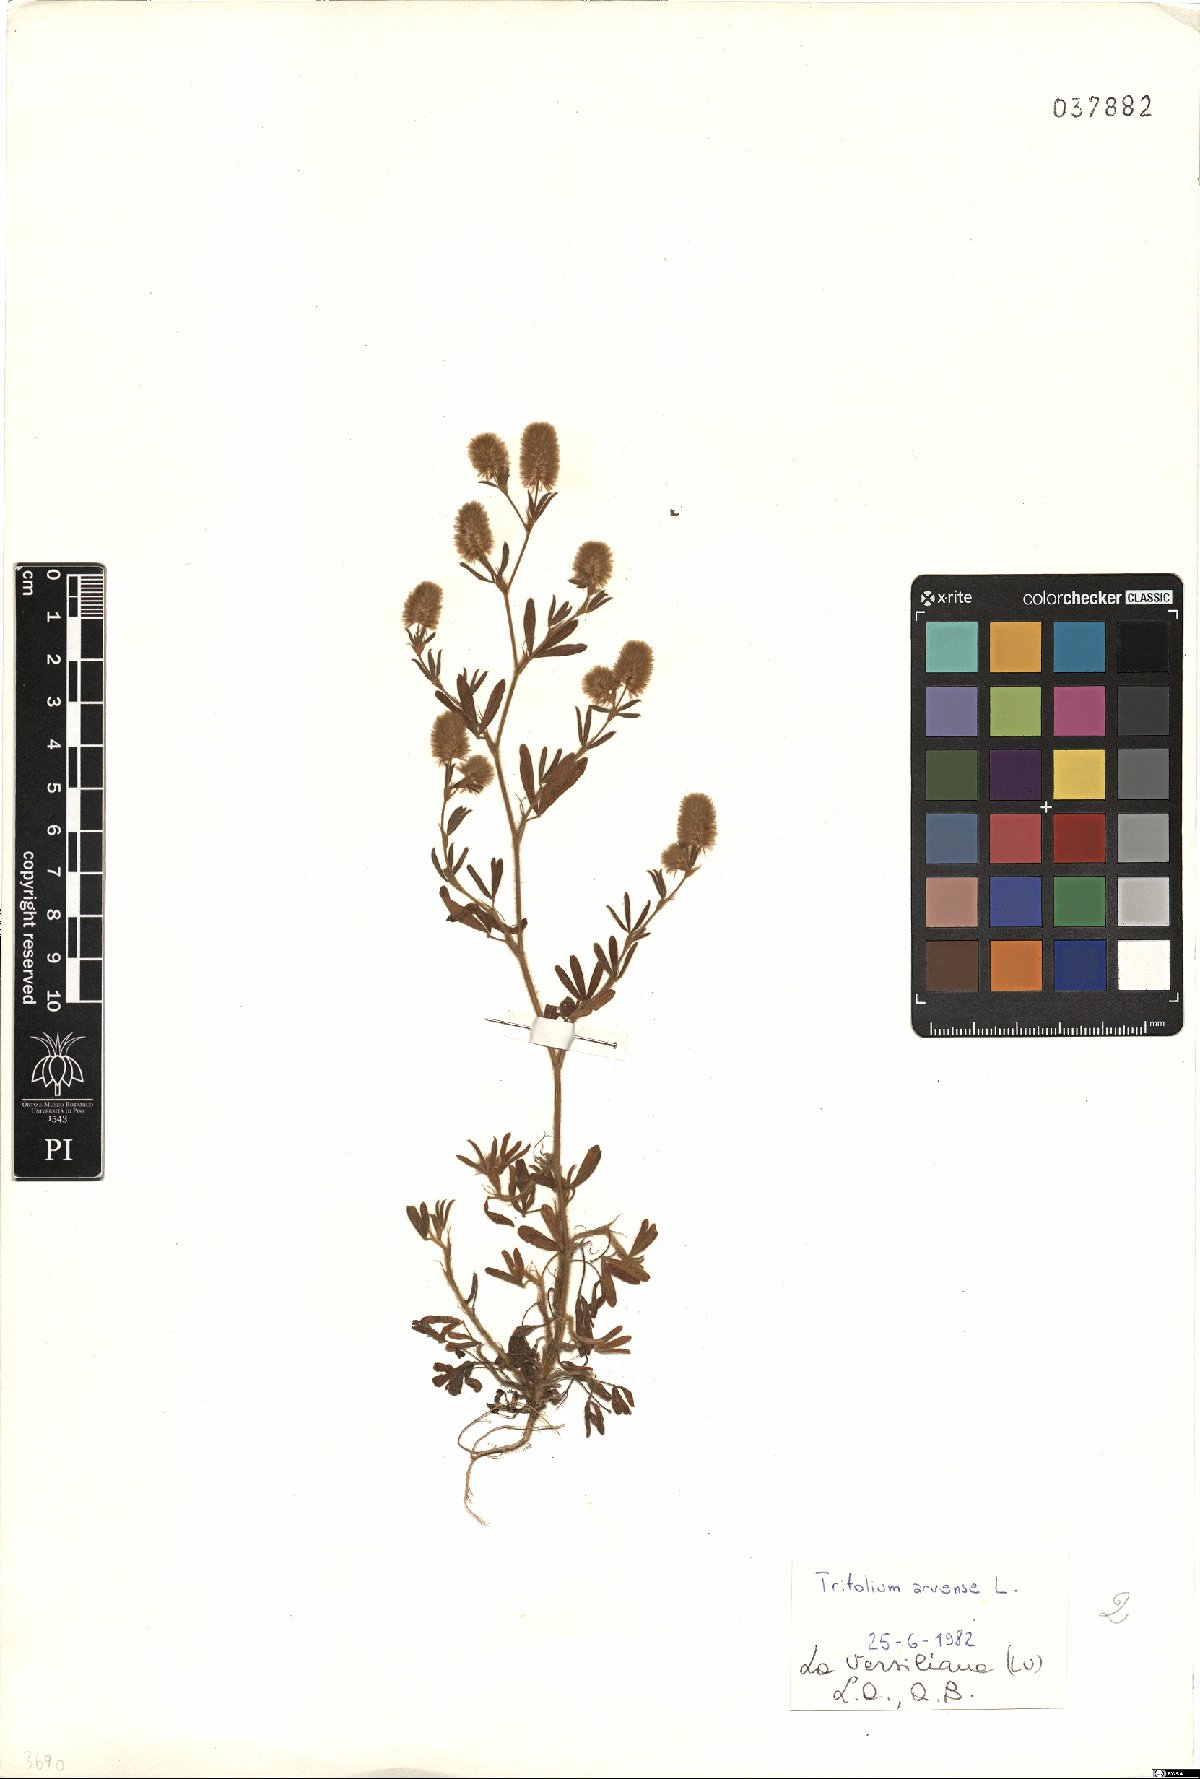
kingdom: Plantae
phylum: Tracheophyta
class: Magnoliopsida
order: Fabales
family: Fabaceae
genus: Trifolium
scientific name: Trifolium arvense
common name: Hare's-foot clover
